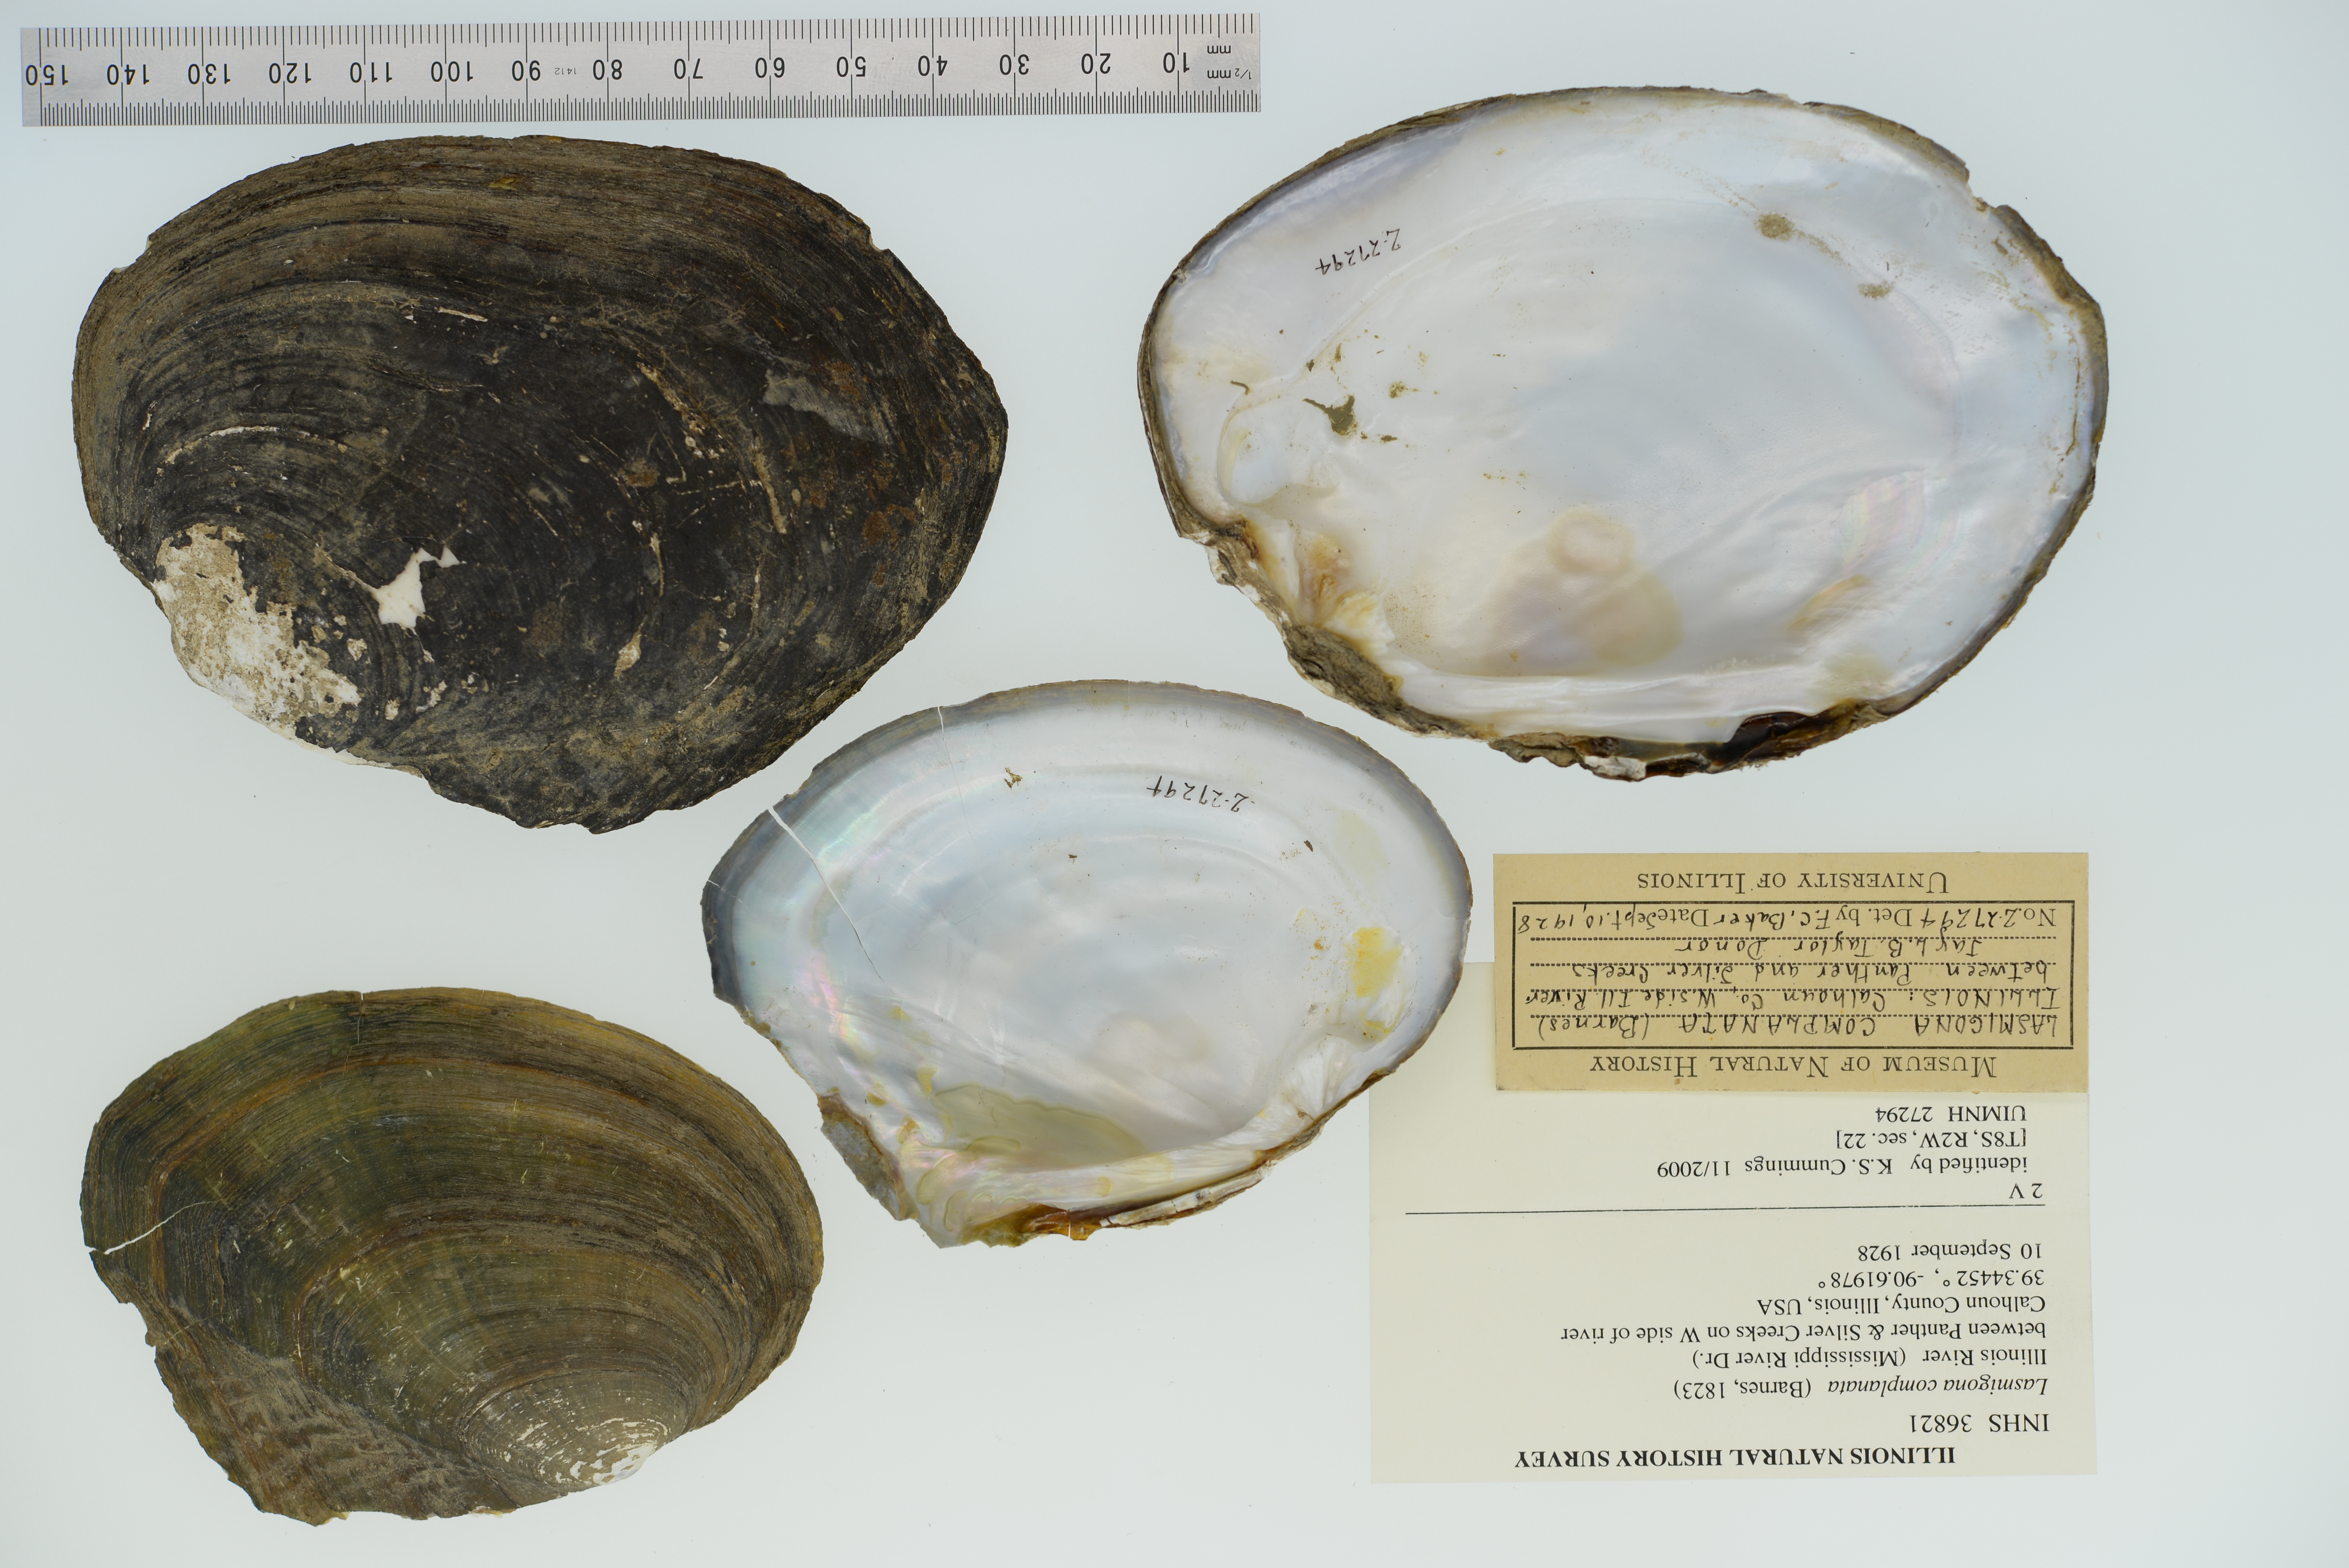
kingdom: Animalia
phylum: Mollusca
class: Bivalvia
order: Unionida
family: Unionidae
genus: Lasmigona
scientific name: Lasmigona complanata
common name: White heelsplitter
